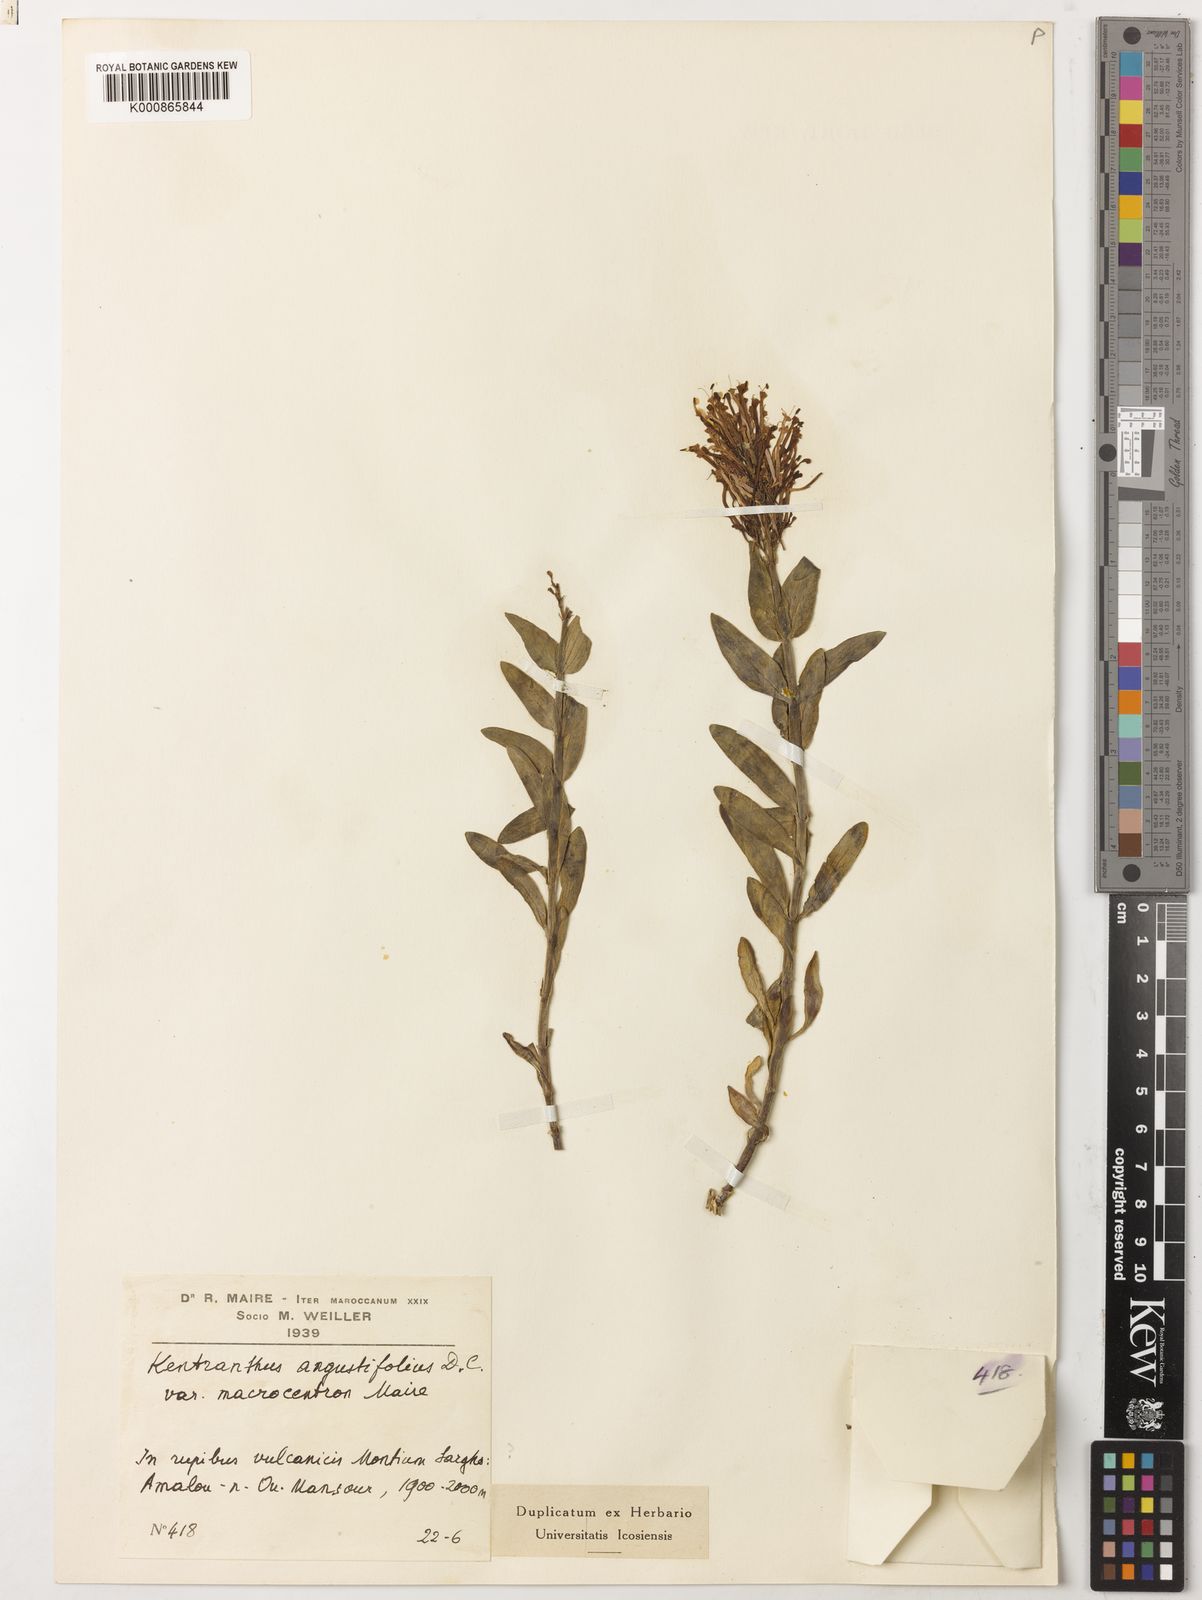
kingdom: Plantae
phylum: Tracheophyta
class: Magnoliopsida
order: Dipsacales
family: Caprifoliaceae
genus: Centranthus
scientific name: Centranthus angustifolius
